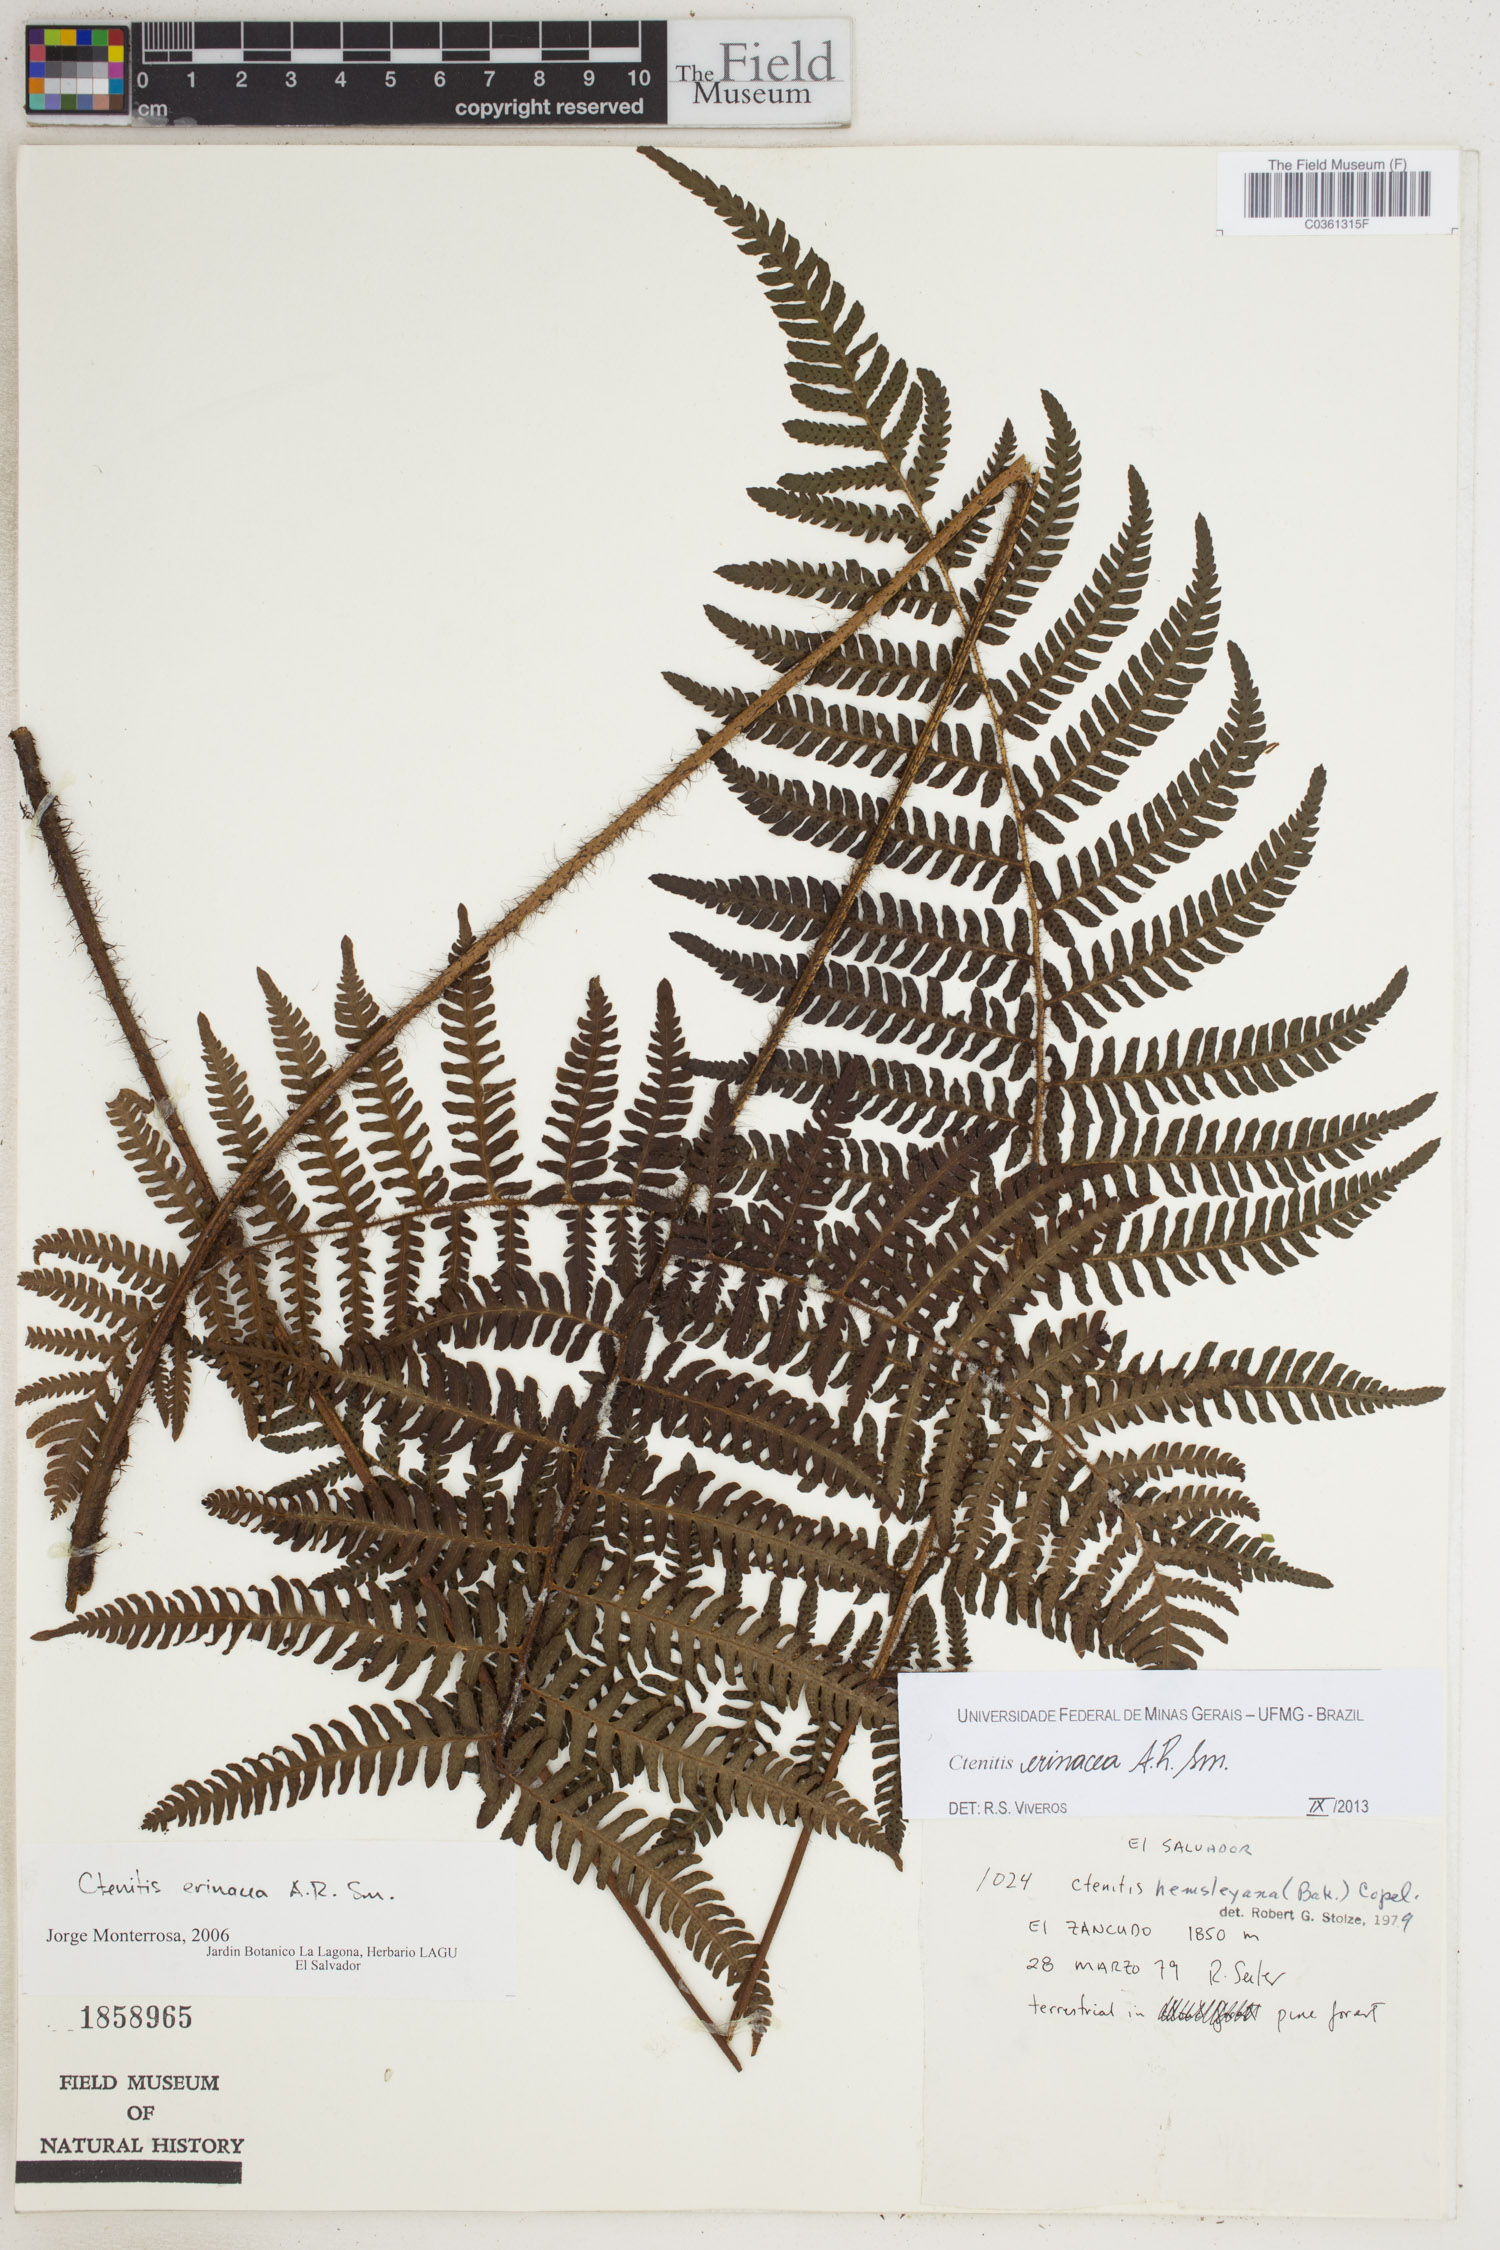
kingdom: Plantae
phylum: Tracheophyta
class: Polypodiopsida
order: Polypodiales
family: Dryopteridaceae
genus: Ctenitis
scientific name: Ctenitis erinacea
